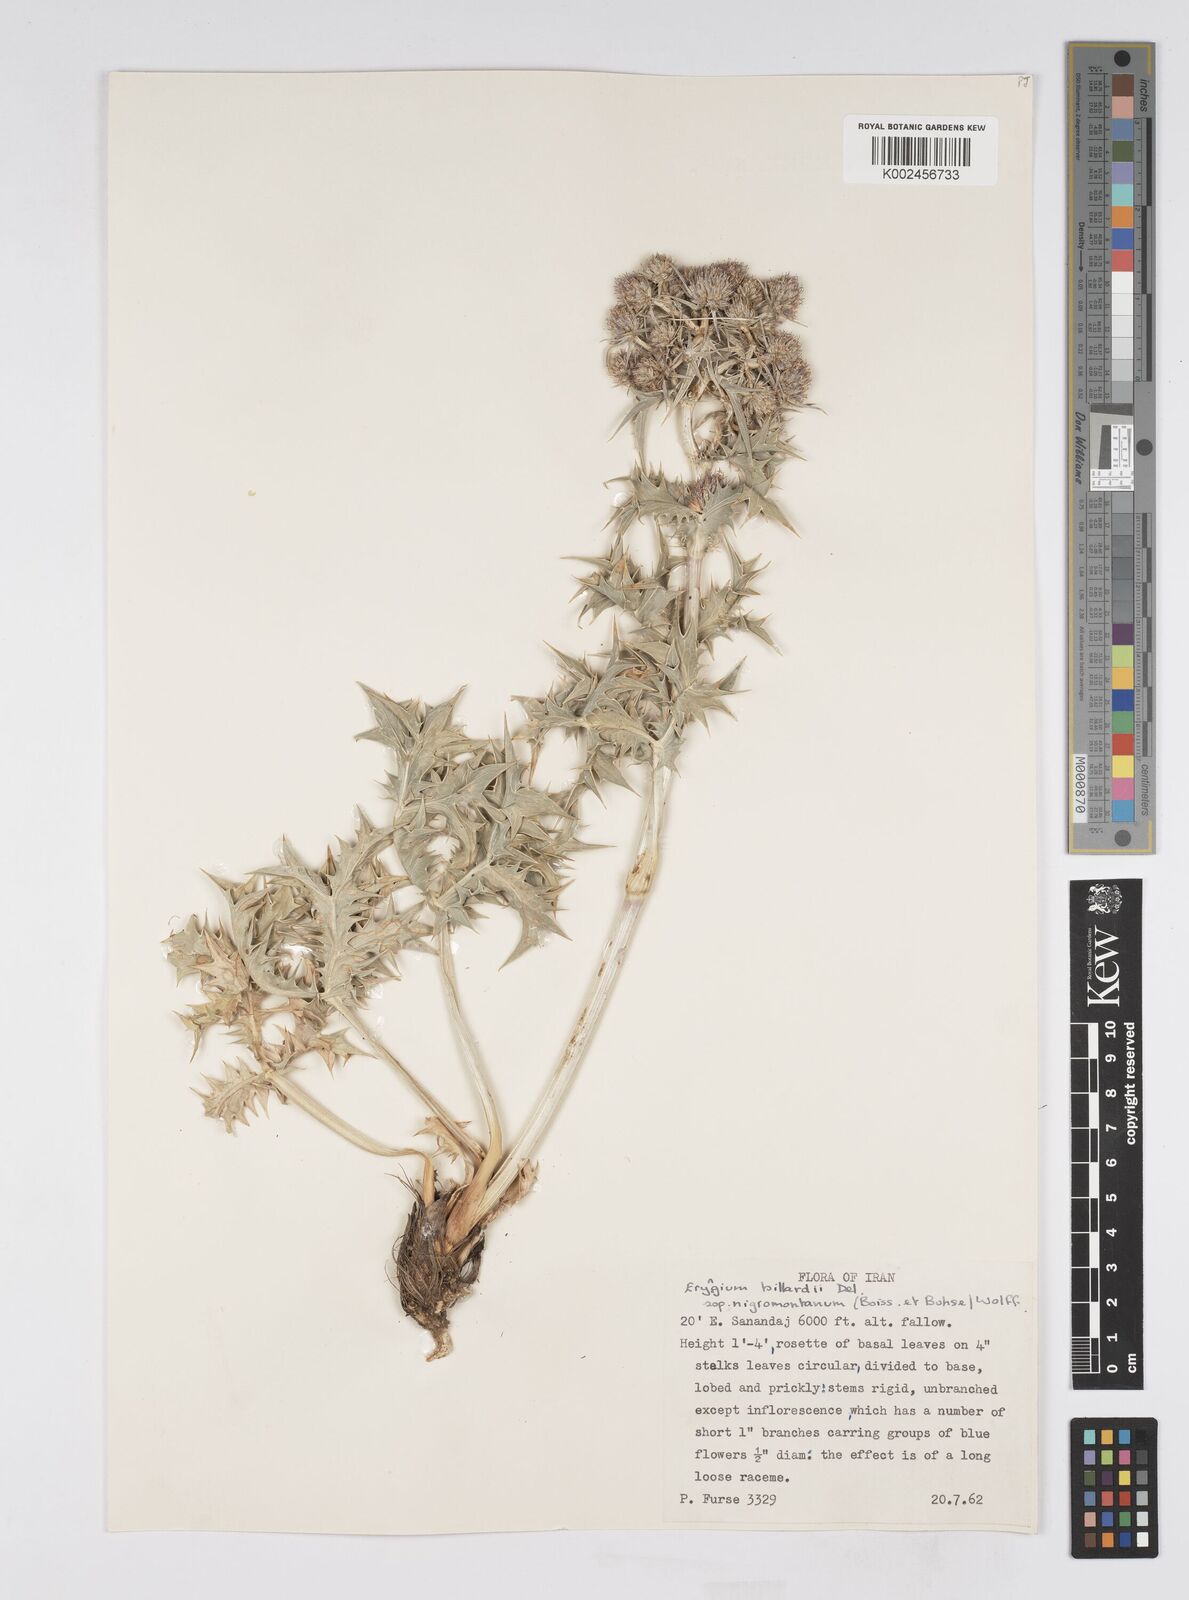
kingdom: Plantae
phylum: Tracheophyta
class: Magnoliopsida
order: Apiales
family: Apiaceae
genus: Eryngium
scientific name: Eryngium billardierei
